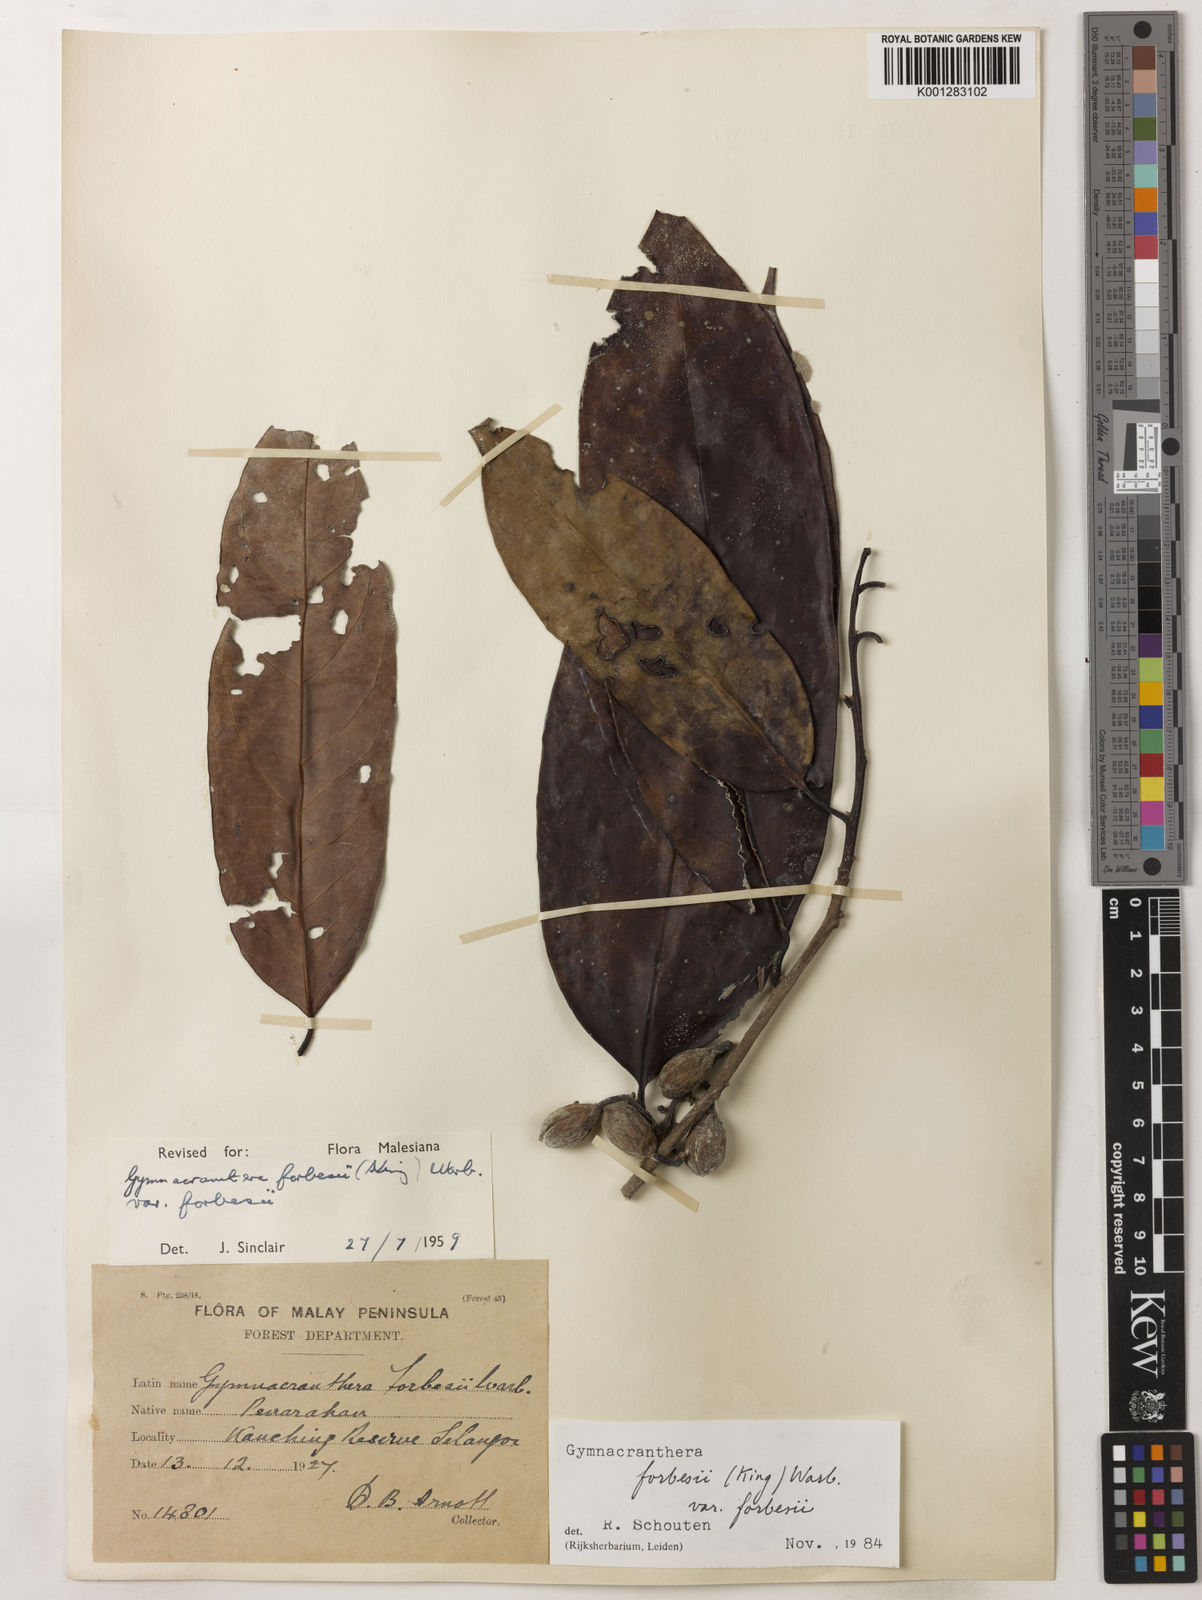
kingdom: Plantae
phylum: Tracheophyta
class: Magnoliopsida
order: Magnoliales
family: Myristicaceae
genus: Gymnacranthera
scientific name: Gymnacranthera forbesii
